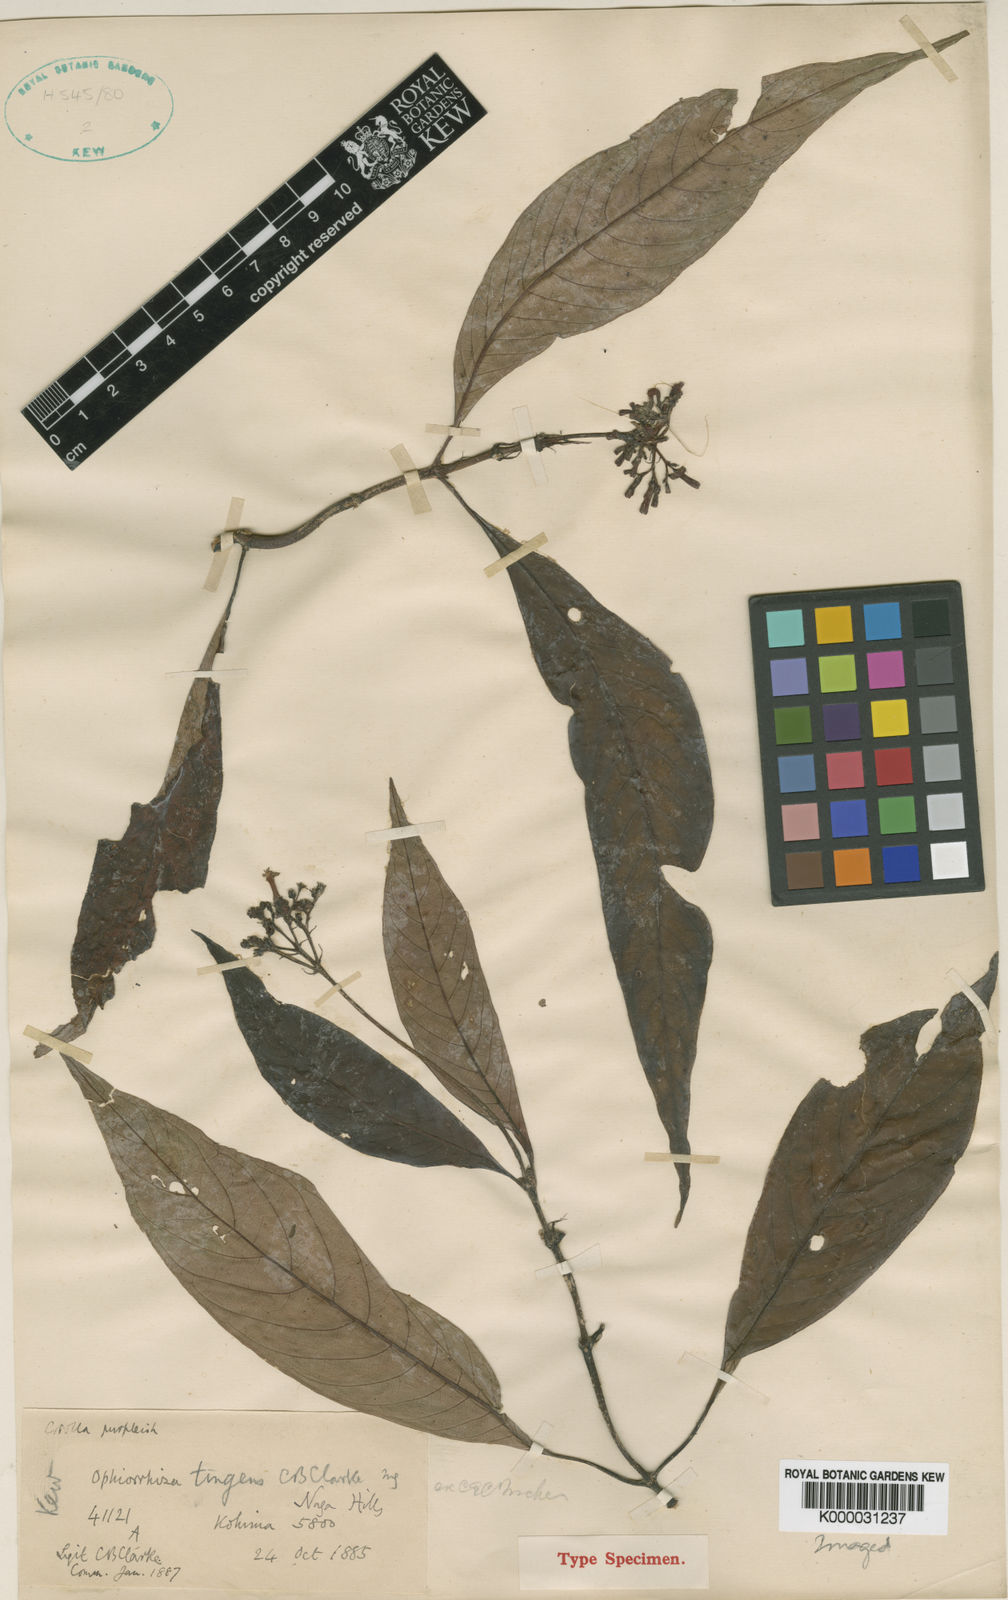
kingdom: Plantae
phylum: Tracheophyta
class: Magnoliopsida
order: Gentianales
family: Rubiaceae
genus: Ophiorrhiza
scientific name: Ophiorrhiza
